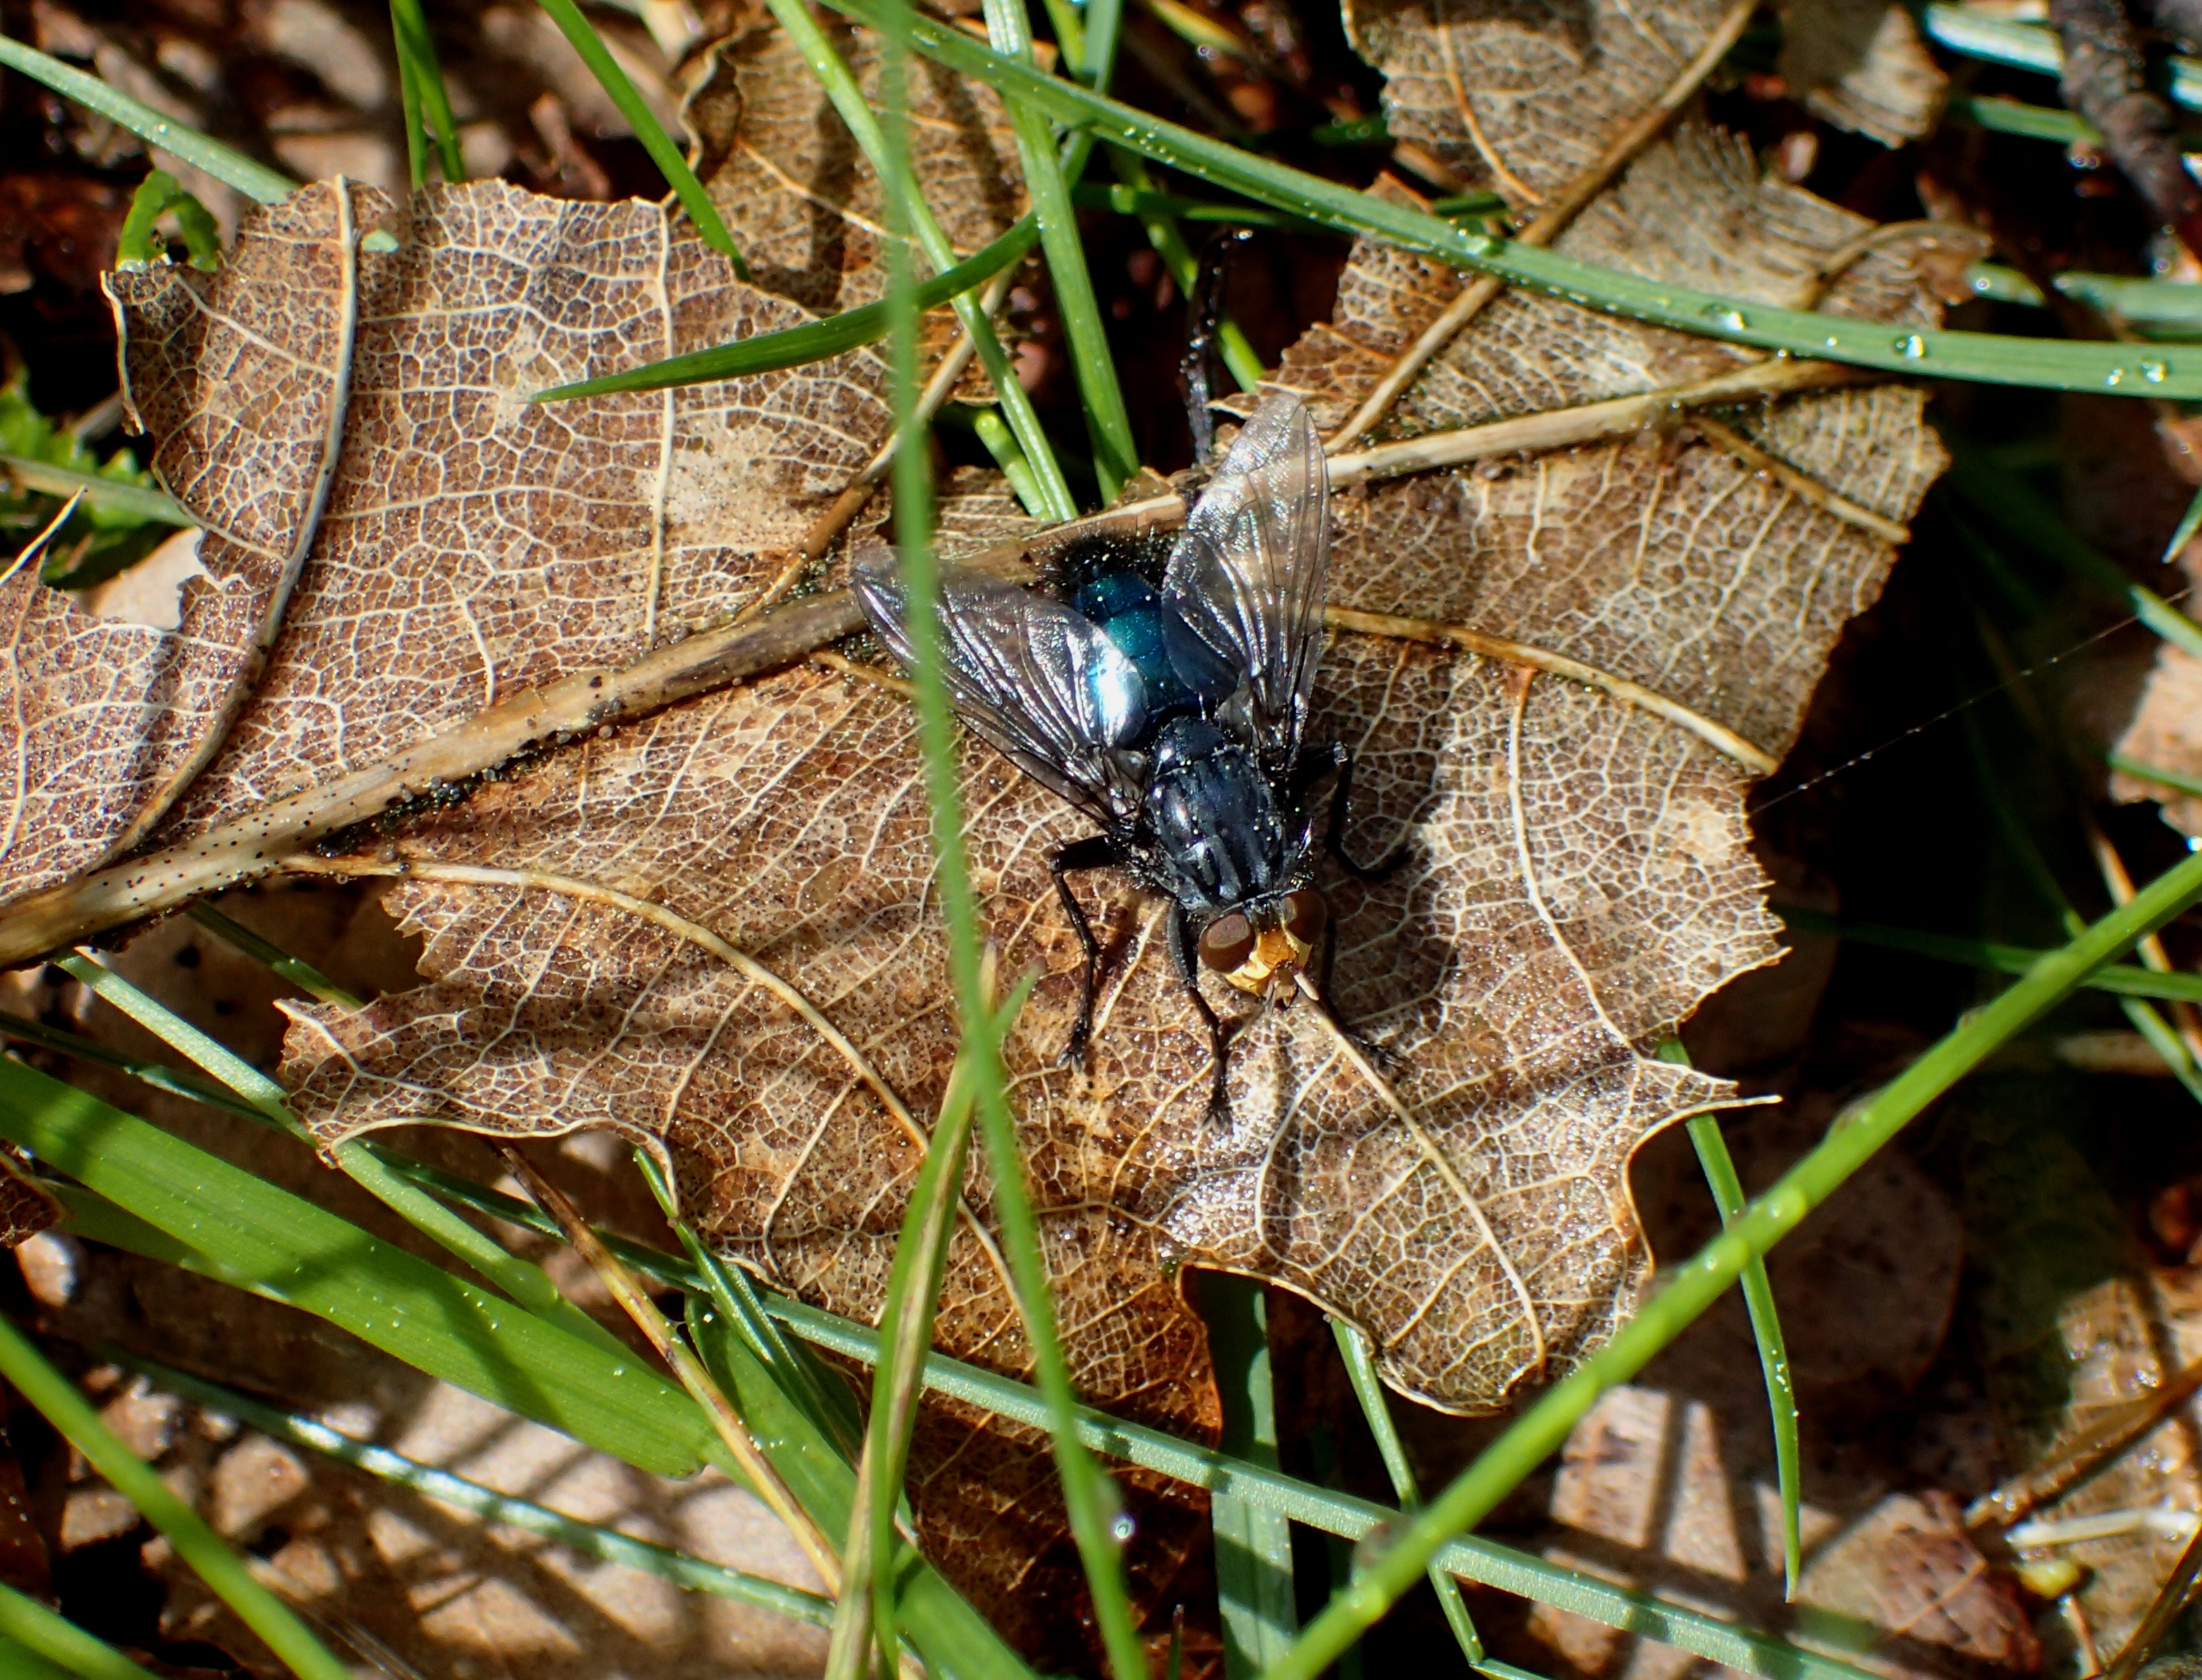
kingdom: Animalia
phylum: Arthropoda
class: Insecta
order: Diptera
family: Calliphoridae
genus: Cynomya
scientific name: Cynomya mortuorum
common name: Dødsflue
